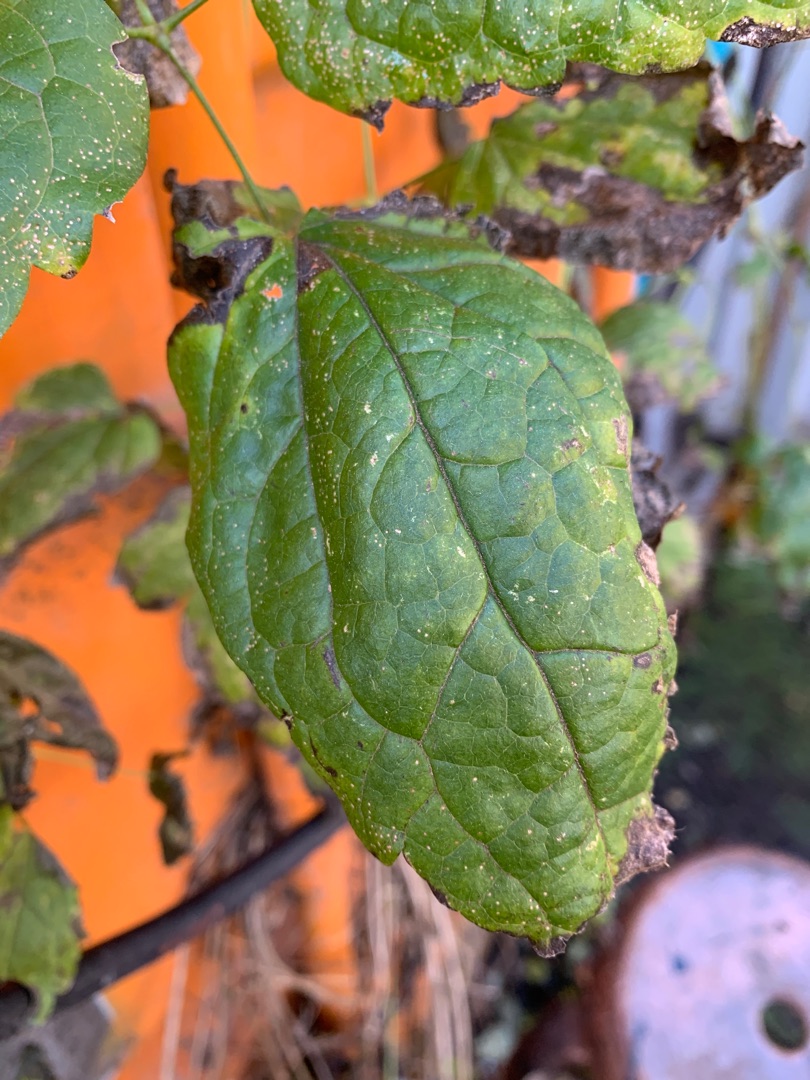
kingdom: Plantae
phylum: Tracheophyta
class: Magnoliopsida
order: Ranunculales
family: Ranunculaceae
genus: Clematis
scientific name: Clematis vitalba
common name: Skovranke
